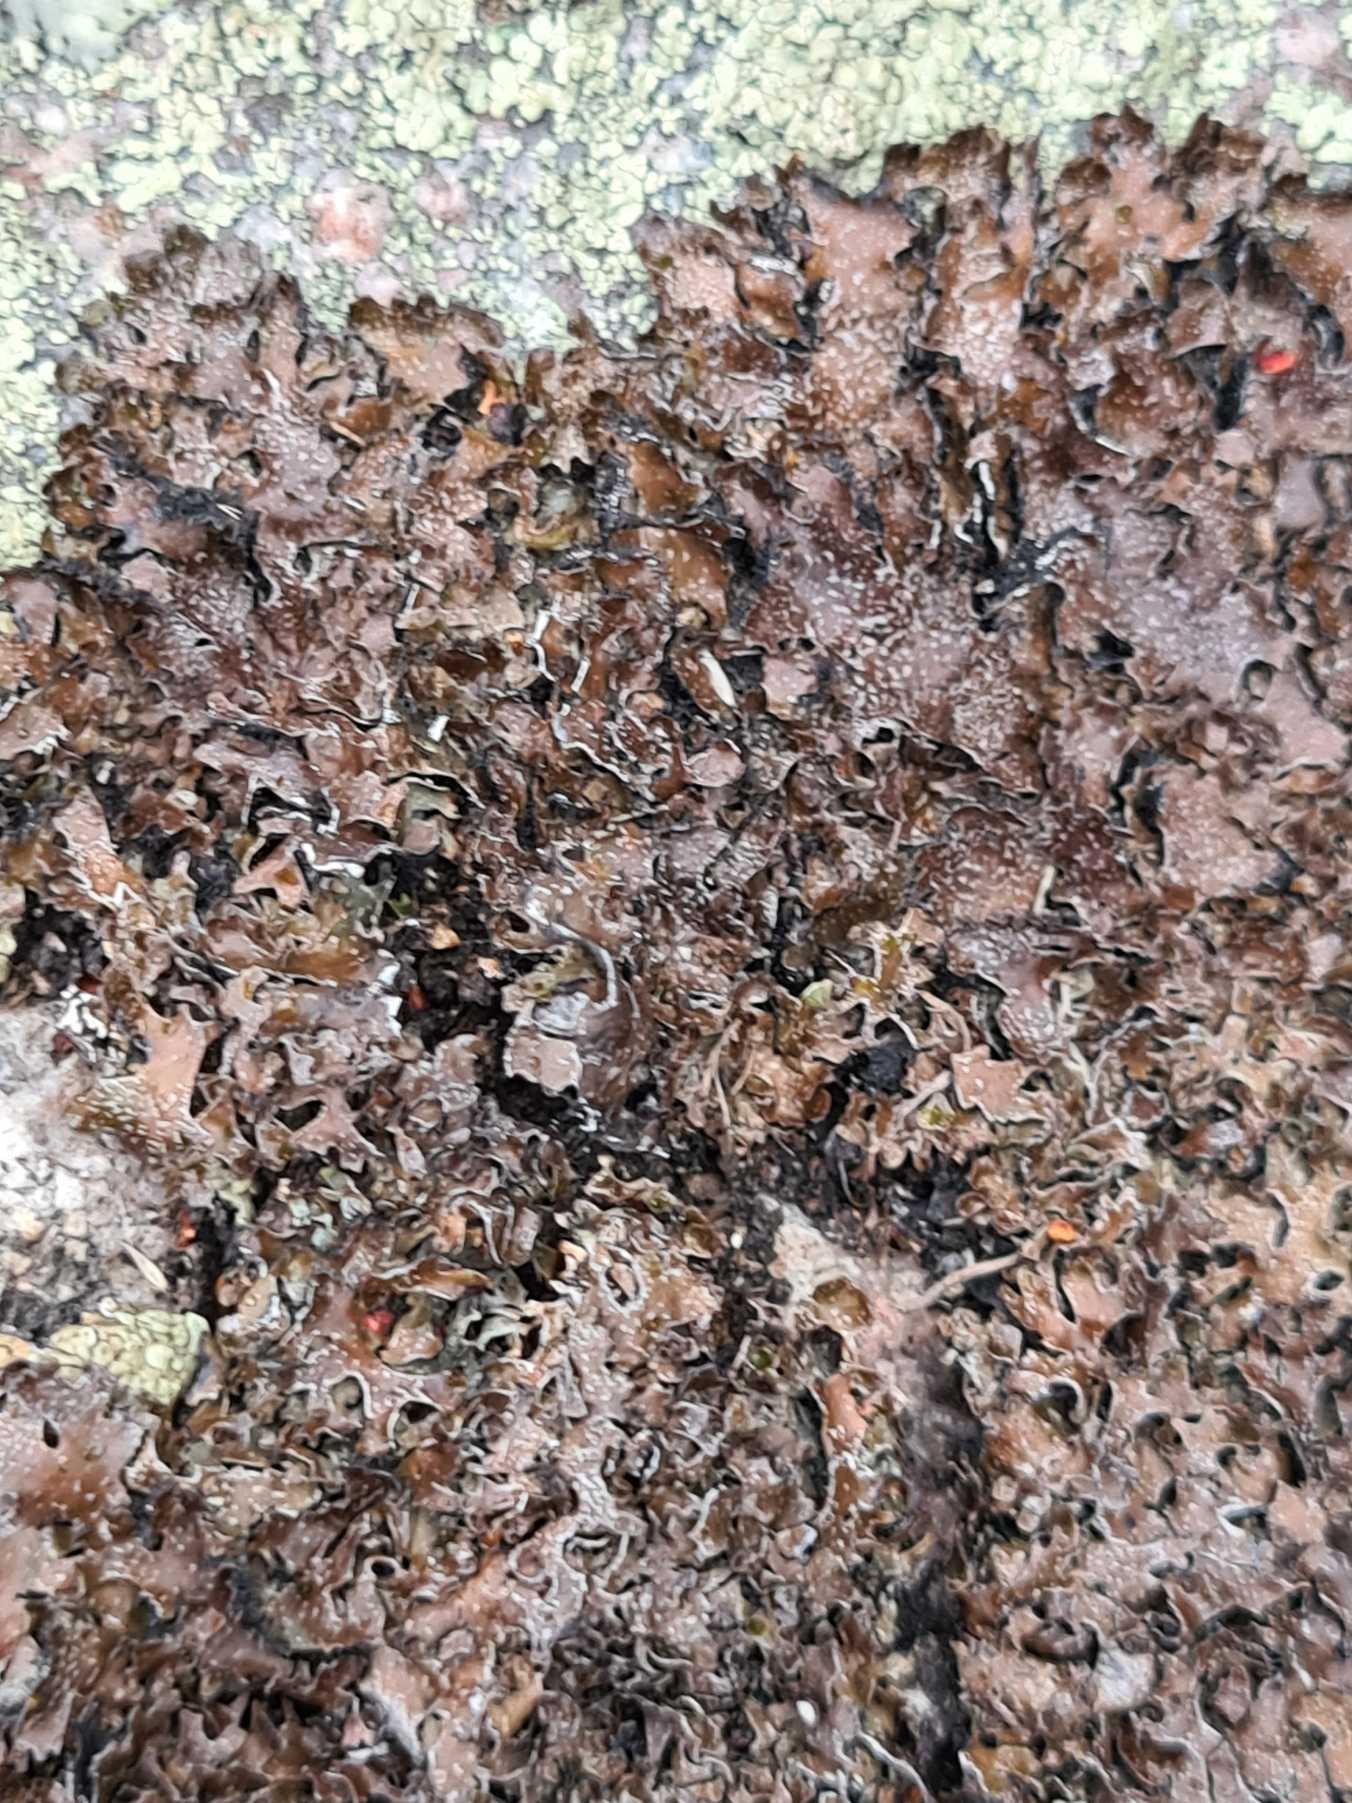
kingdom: Fungi
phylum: Ascomycota
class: Lecanoromycetes
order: Lecanorales
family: Parmeliaceae
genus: Parmelia
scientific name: Parmelia omphalodes
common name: Bronze-skållav
